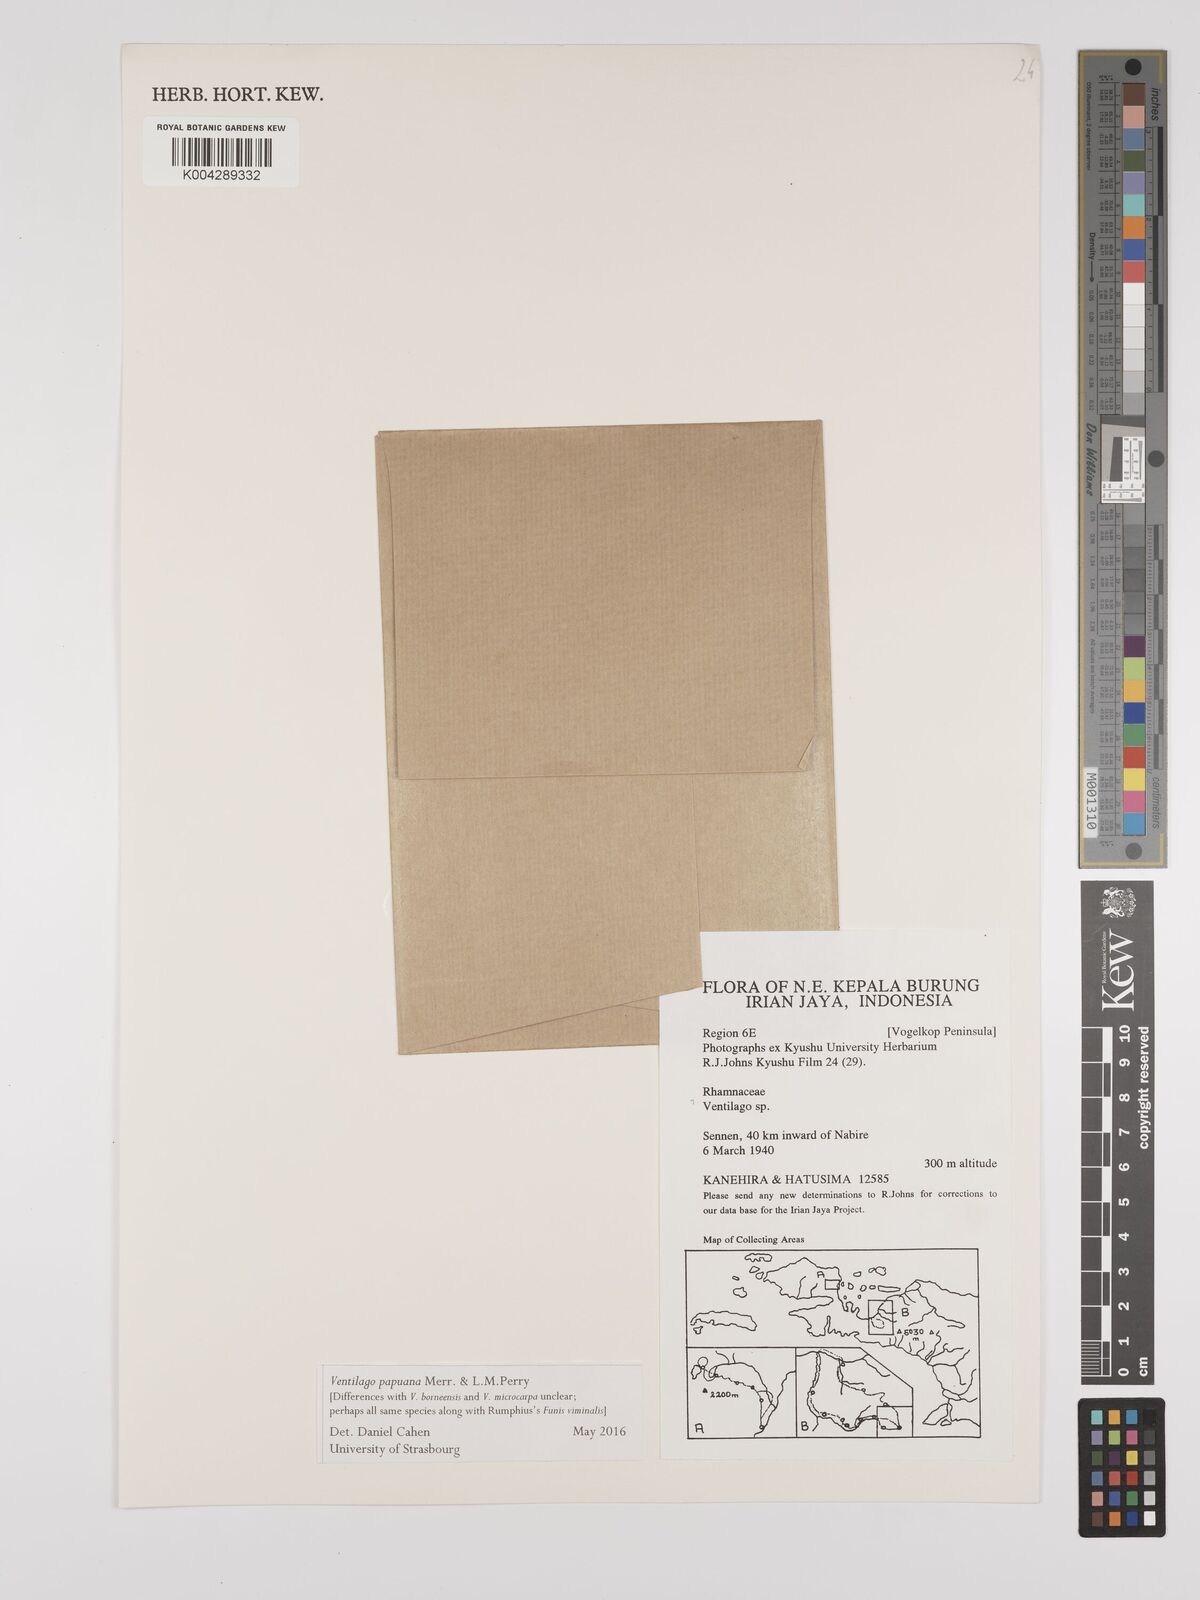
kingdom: Plantae
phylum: Tracheophyta
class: Magnoliopsida
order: Rosales
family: Rhamnaceae
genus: Ventilago
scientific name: Ventilago papuana
